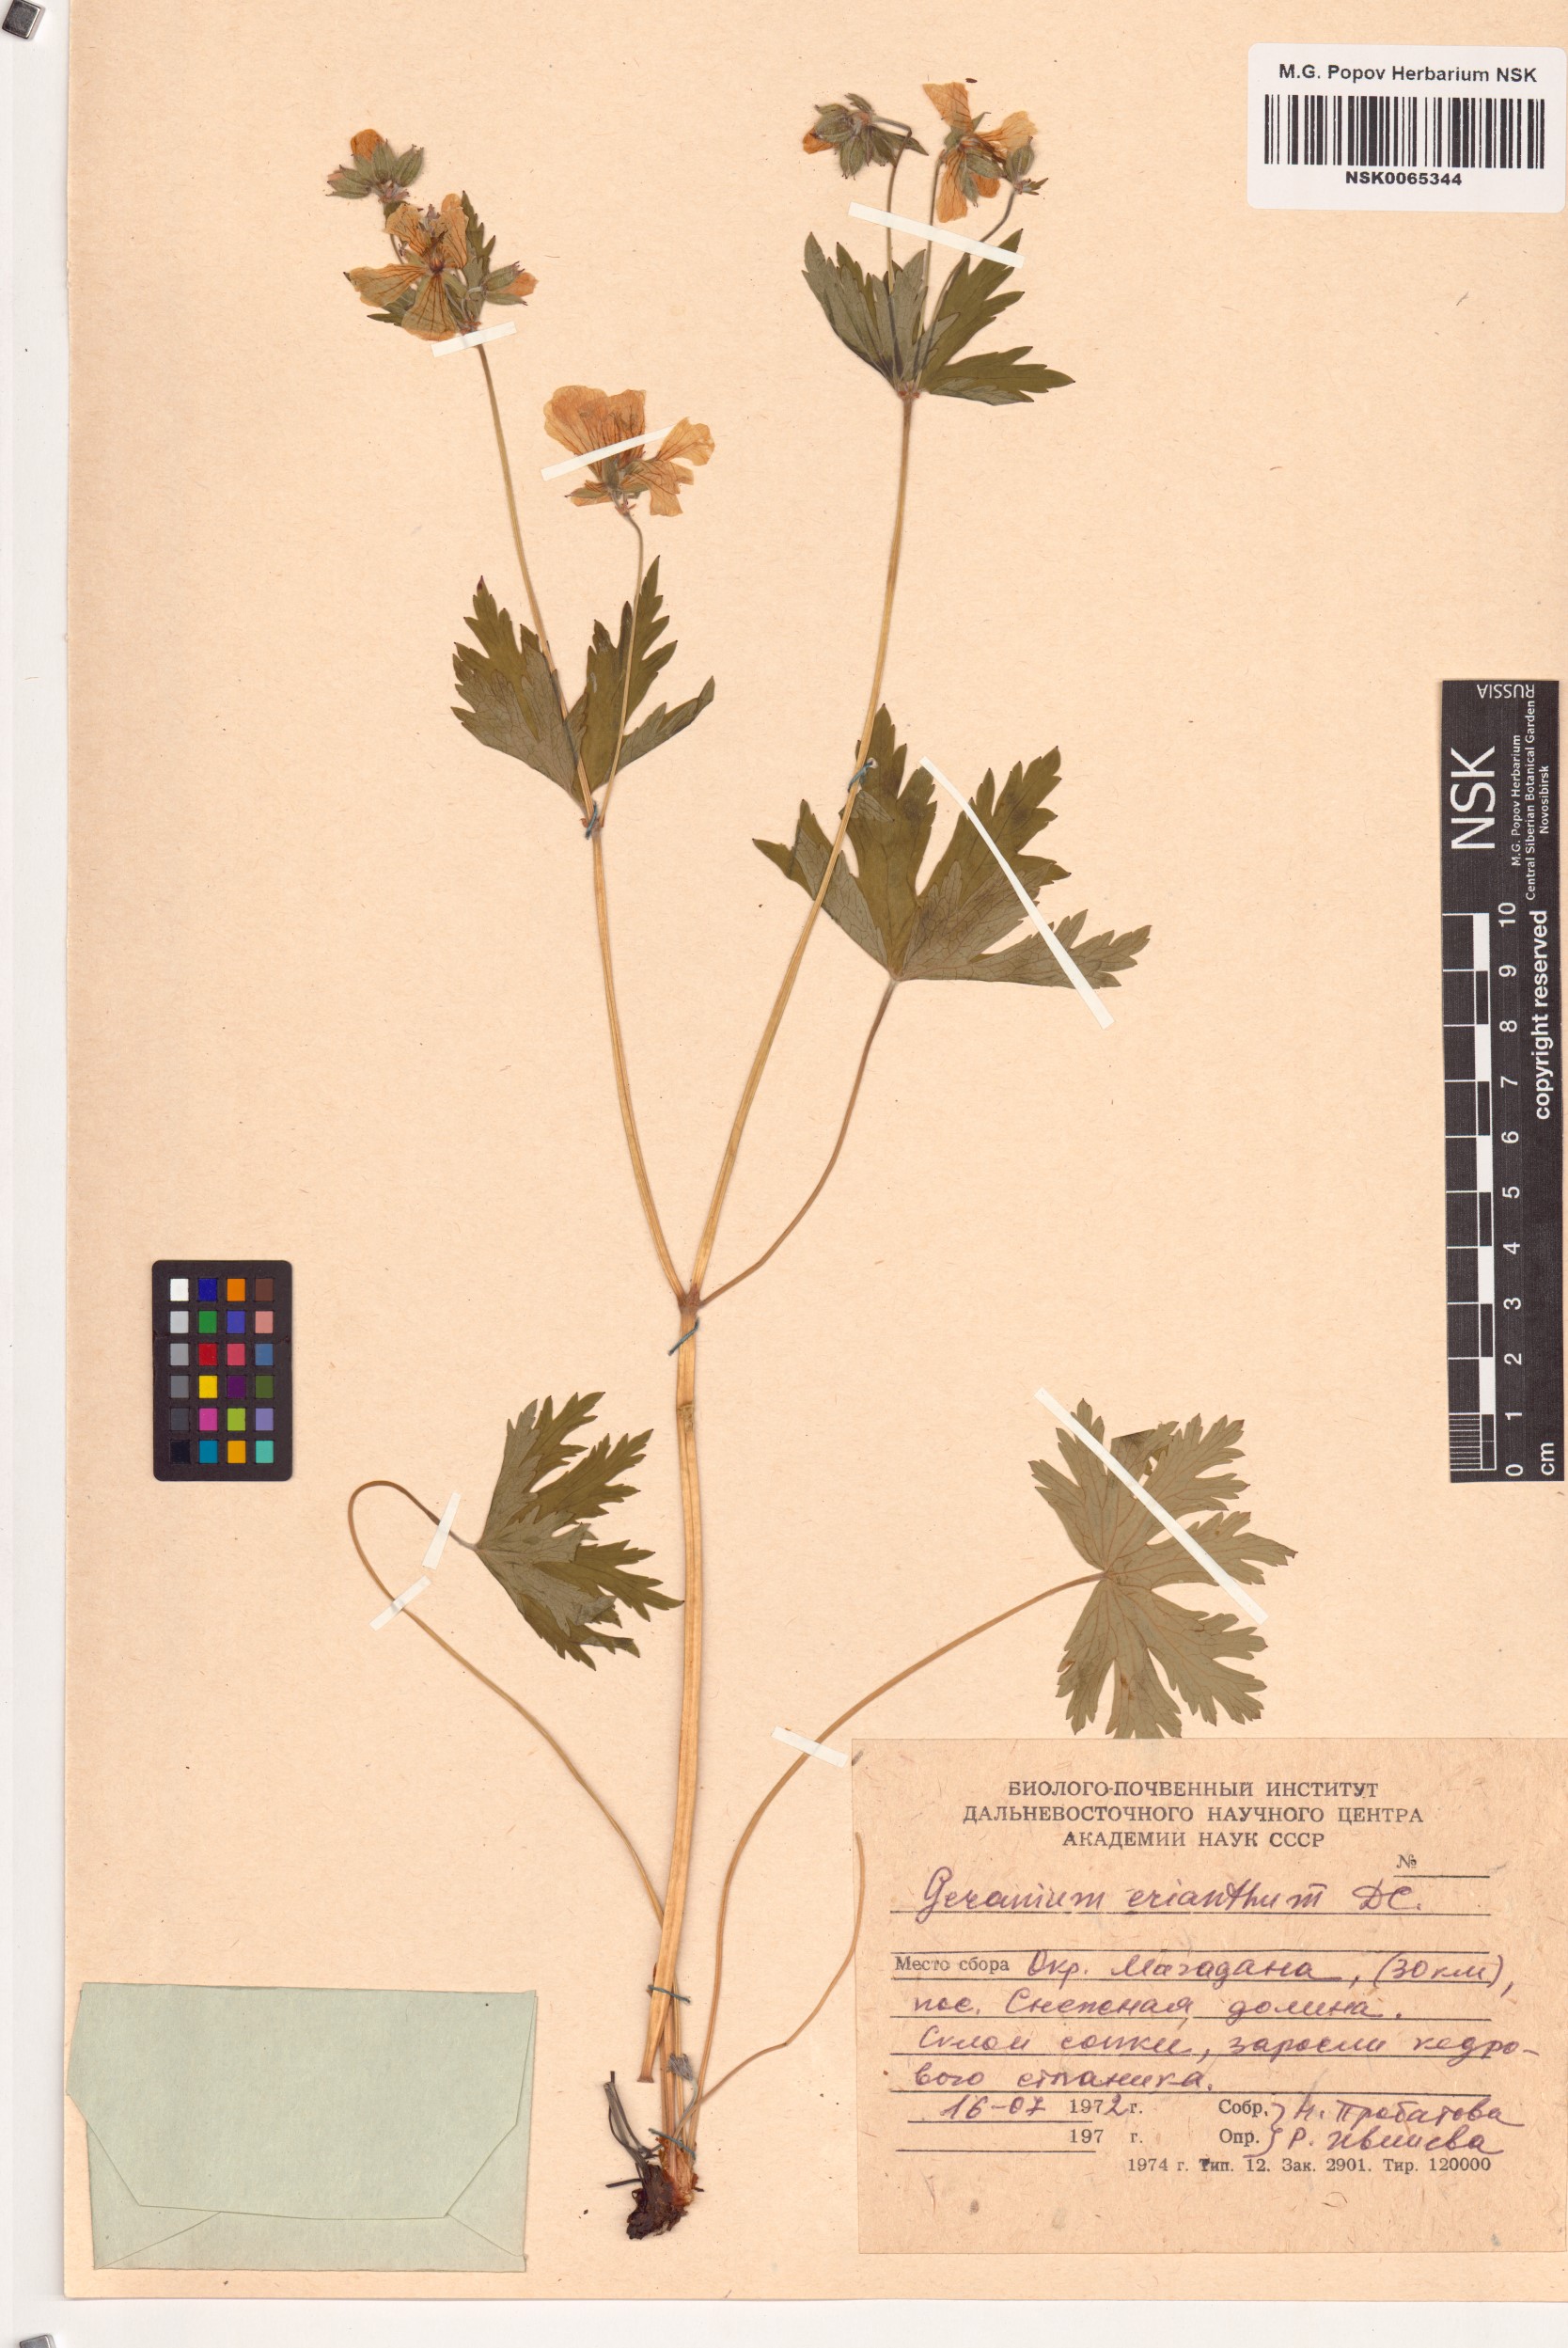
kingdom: Plantae
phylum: Tracheophyta
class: Magnoliopsida
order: Geraniales
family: Geraniaceae
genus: Geranium
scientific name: Geranium erianthum
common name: Northern crane's-bill
